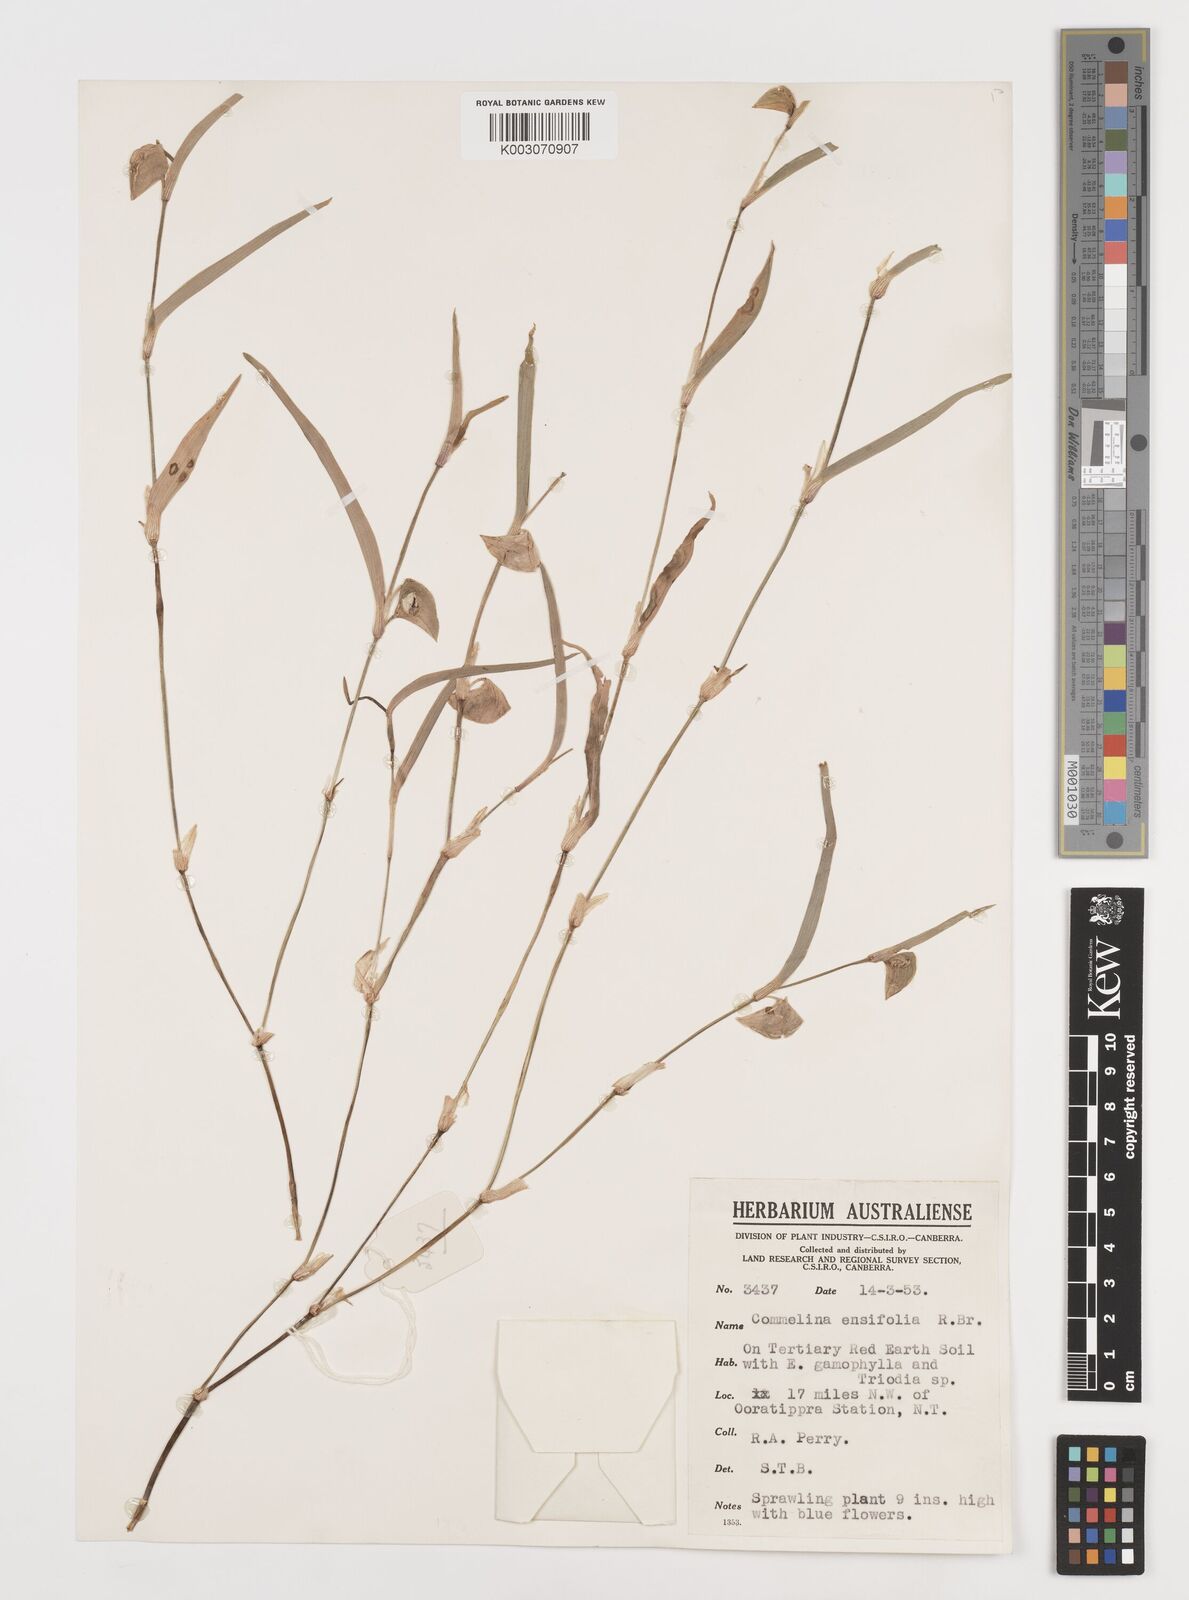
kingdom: Plantae
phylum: Tracheophyta
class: Liliopsida
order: Commelinales
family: Commelinaceae
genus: Commelina
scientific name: Commelina ensifolia
